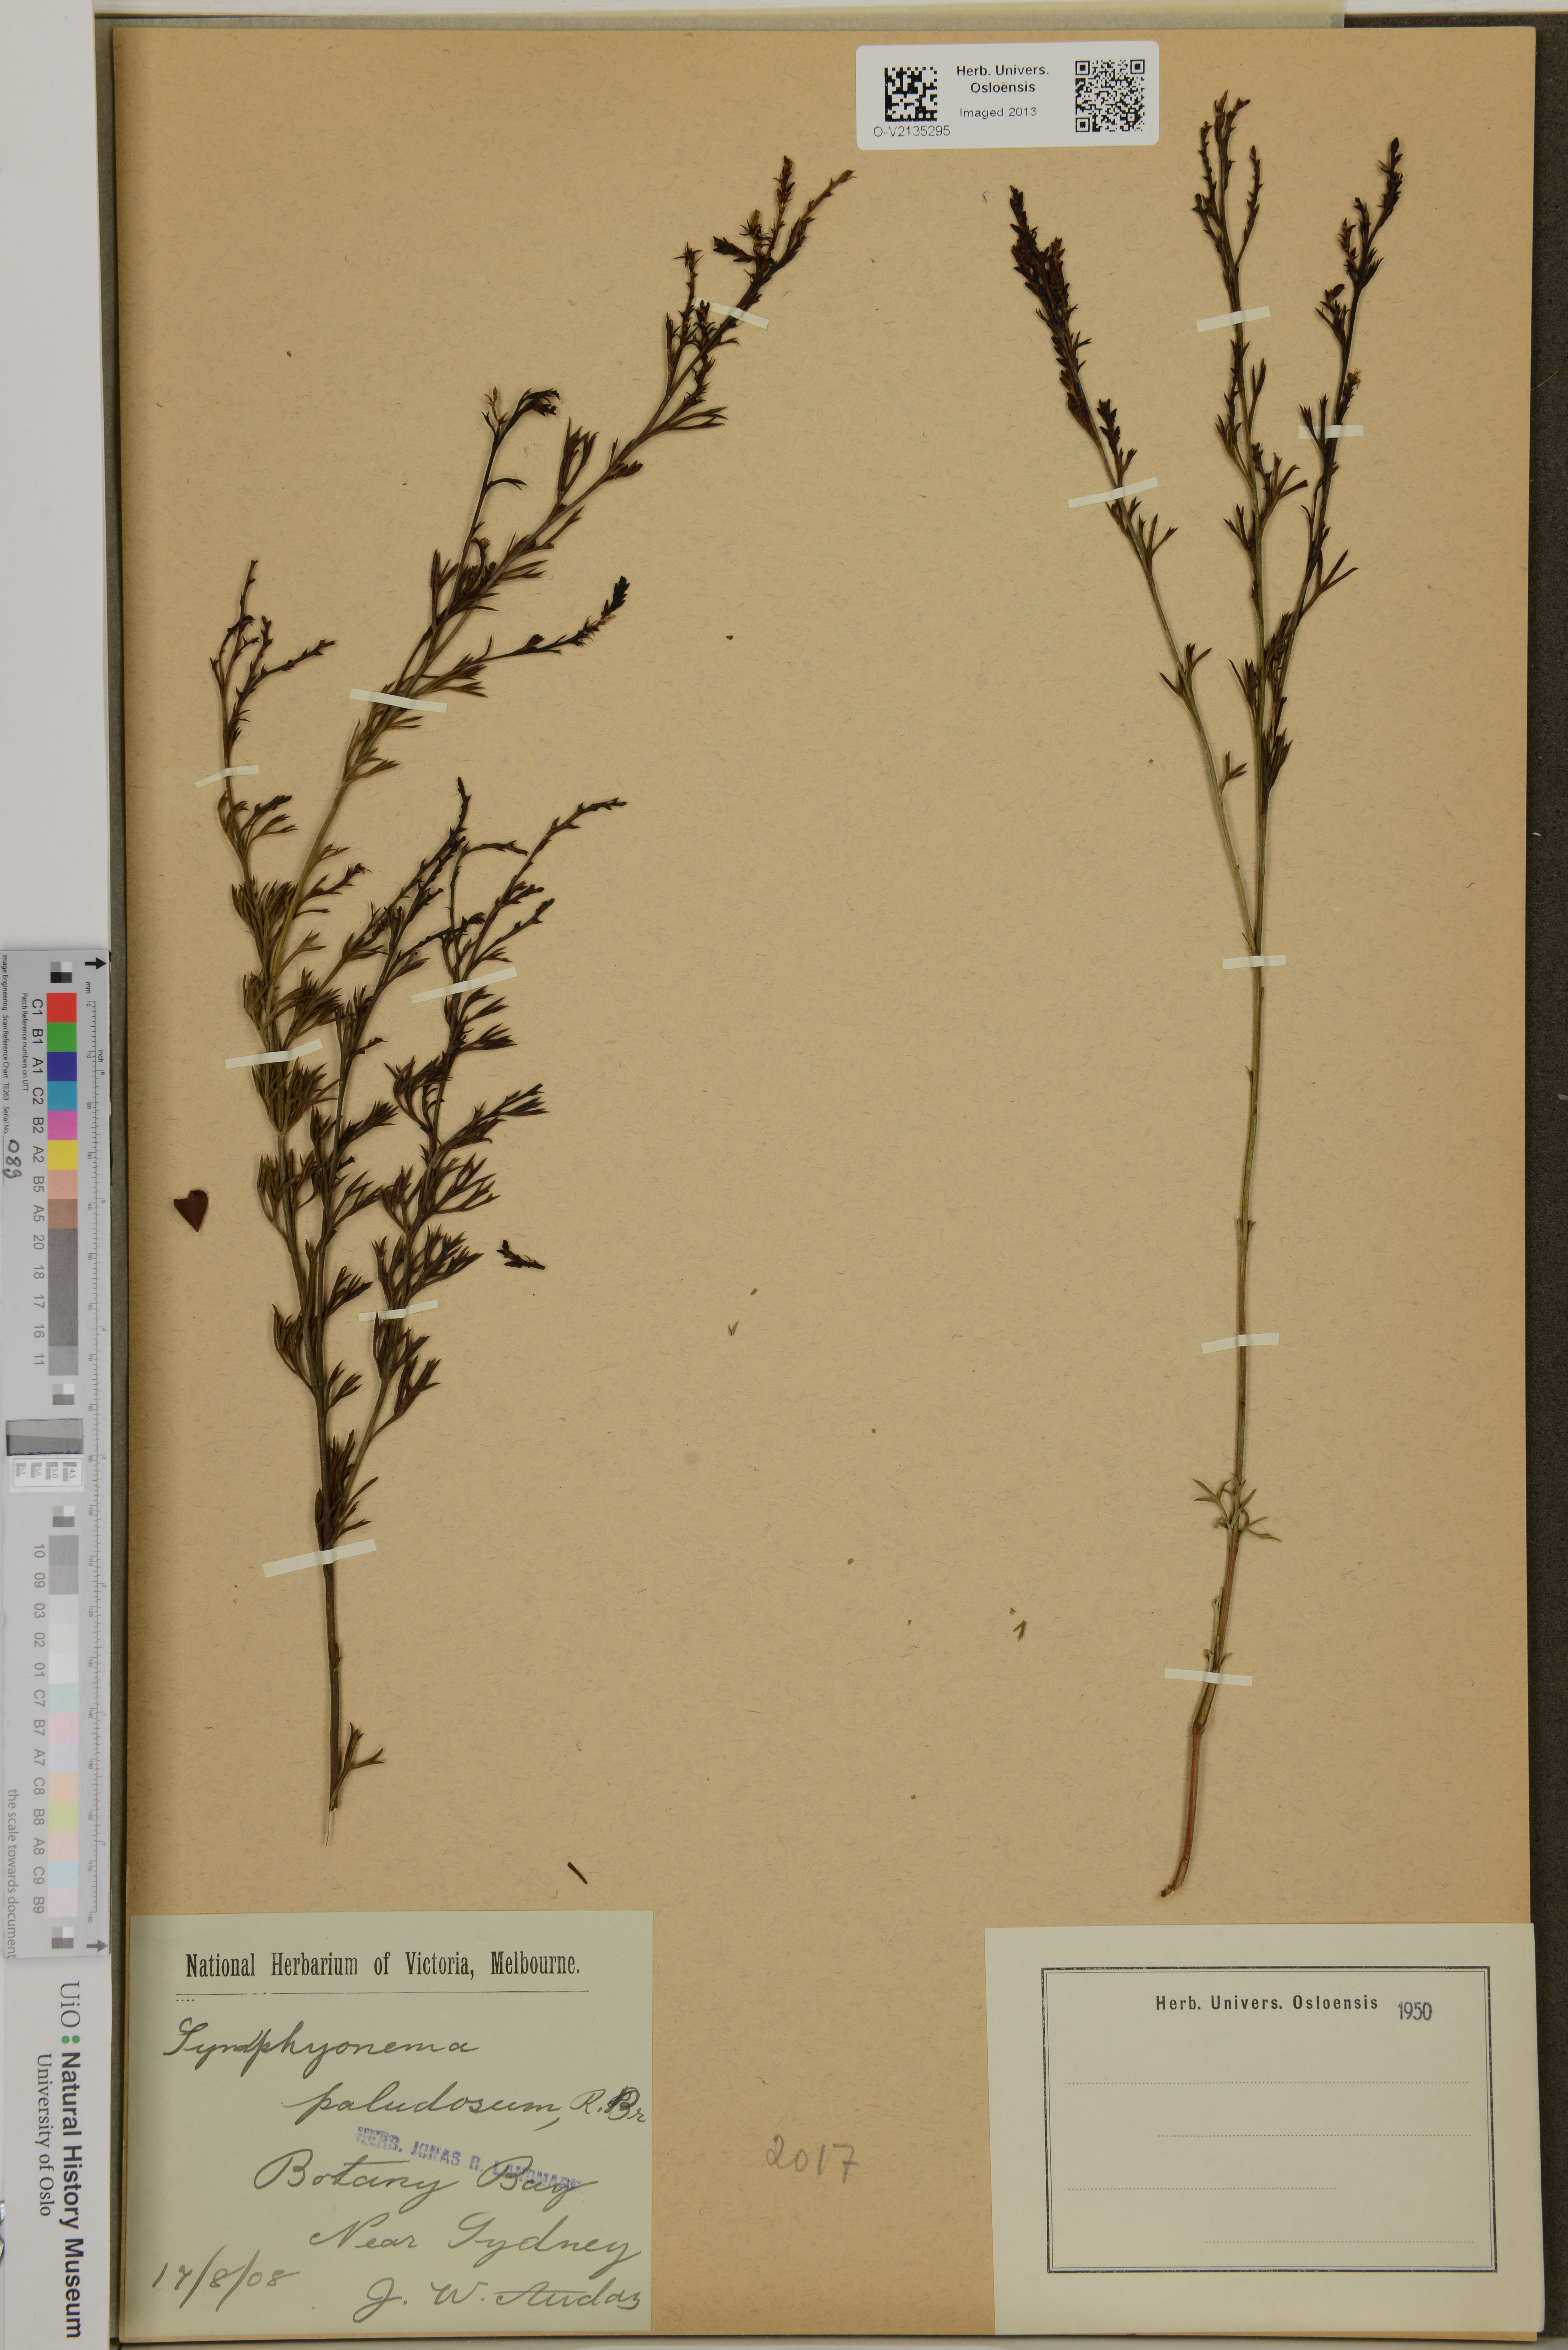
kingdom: Plantae
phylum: Tracheophyta
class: Magnoliopsida
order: Proteales
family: Proteaceae
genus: Symphyonema
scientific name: Symphyonema paludosum
